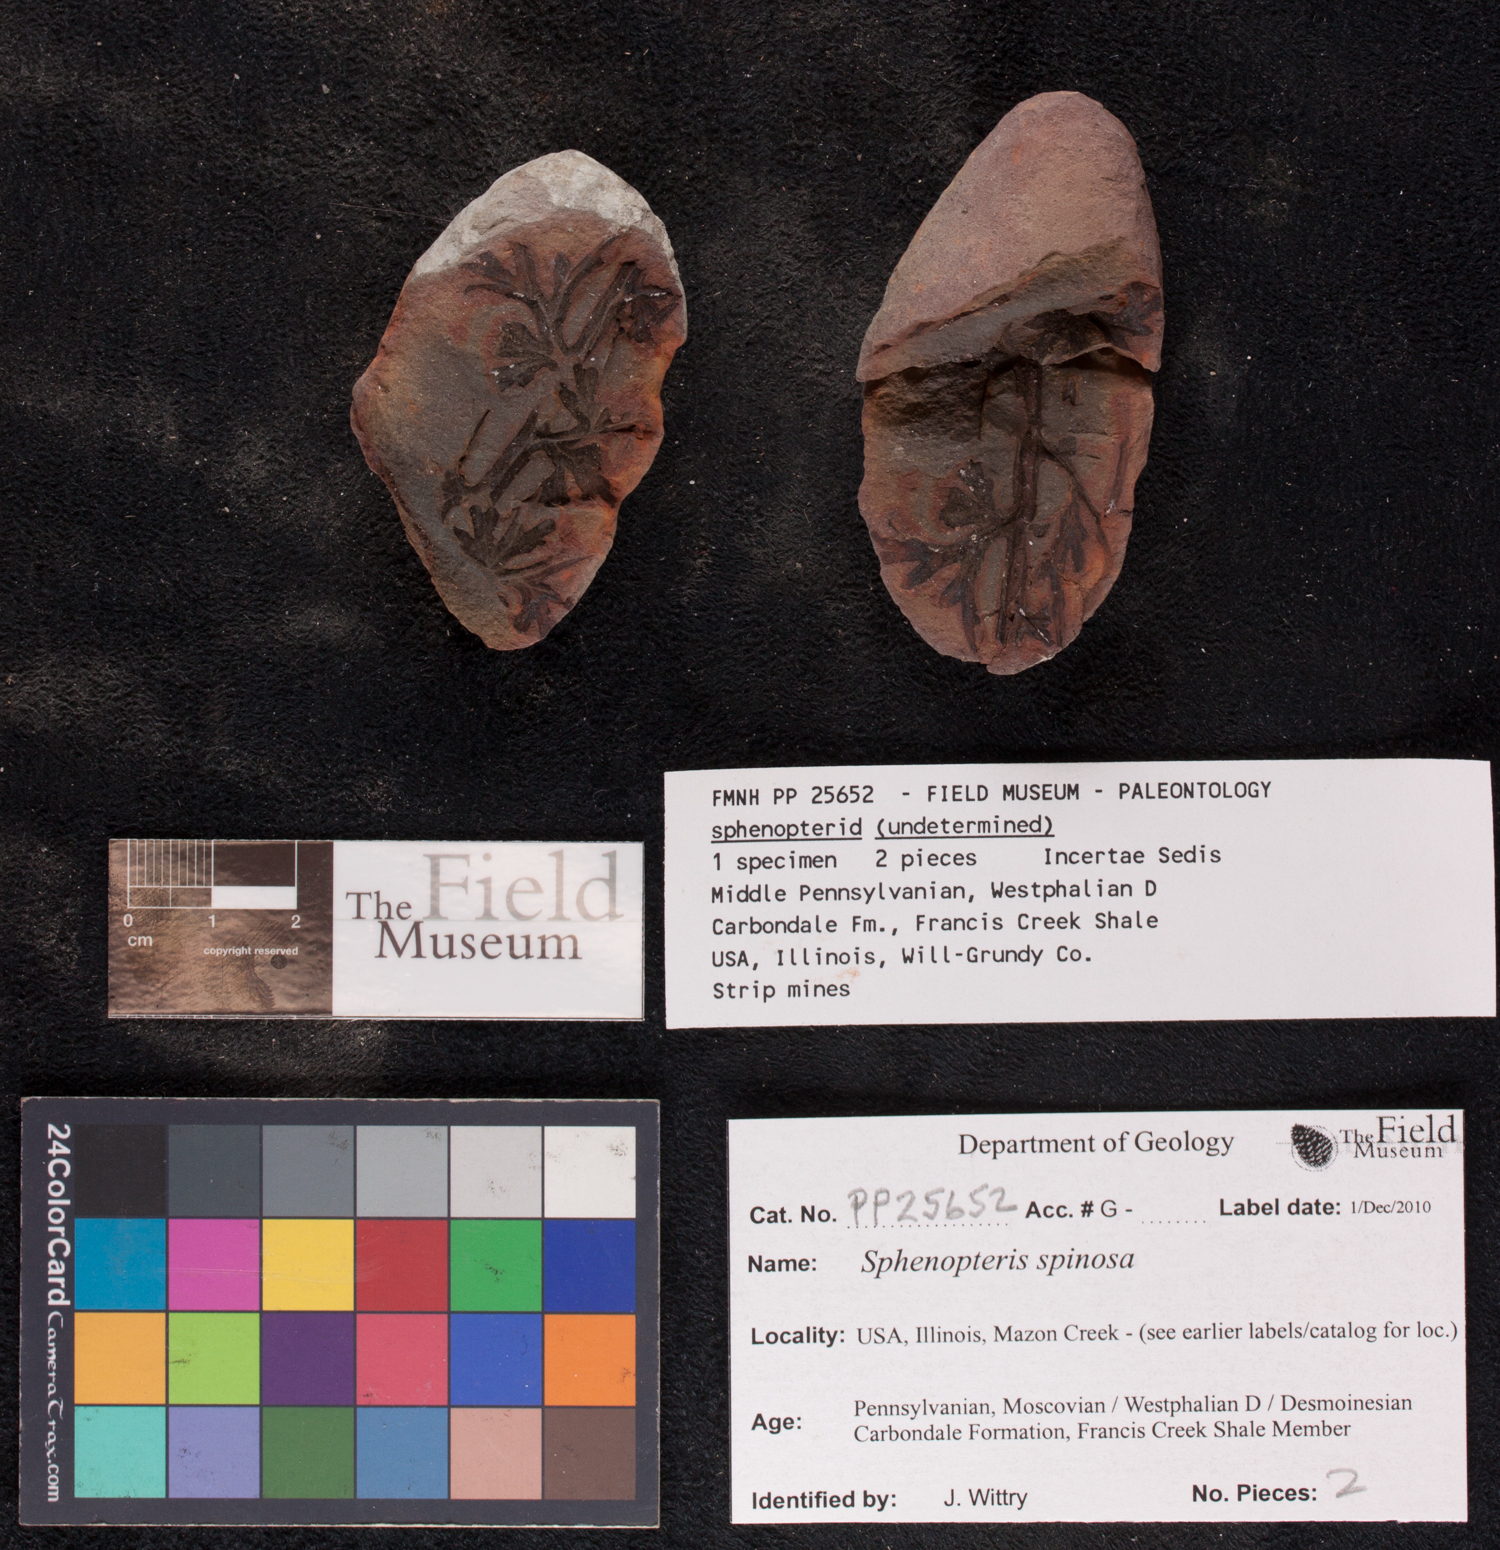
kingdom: Plantae
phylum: Tracheophyta
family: Lyginopteridaceae
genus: Sphenopteris
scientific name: Sphenopteris
